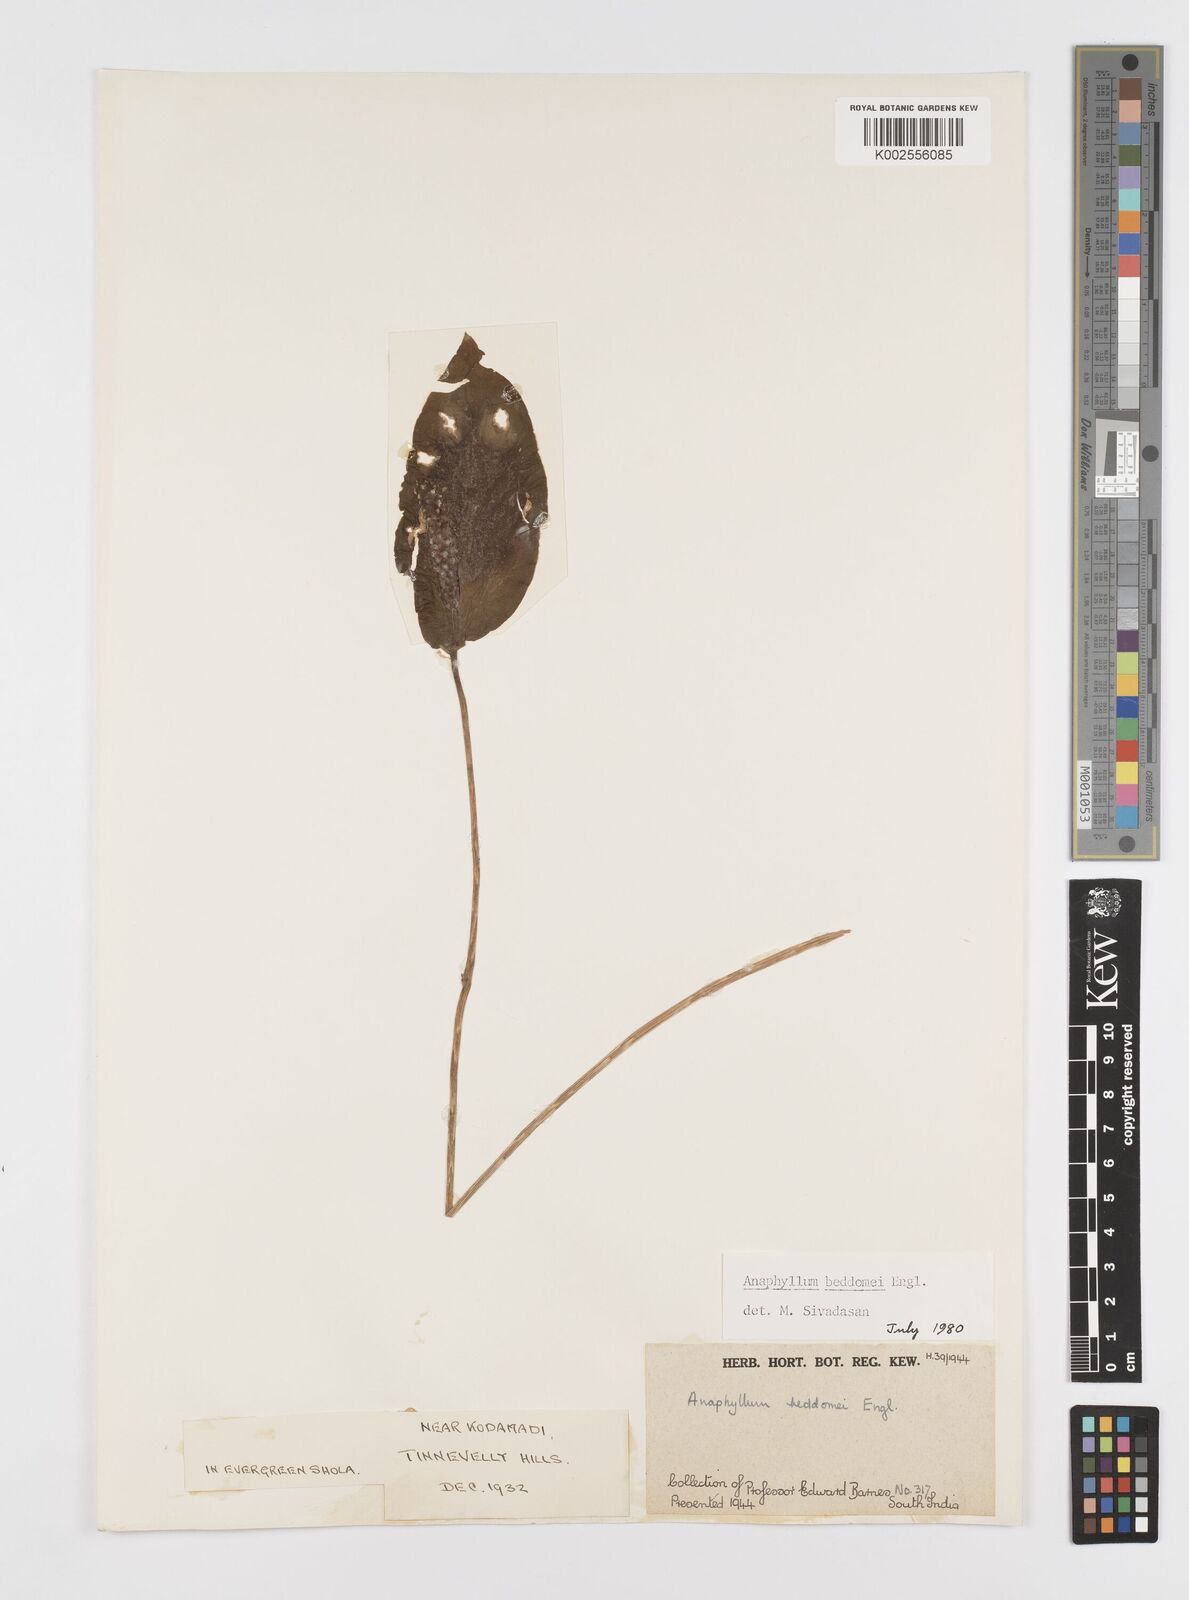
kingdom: Plantae
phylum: Tracheophyta
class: Liliopsida
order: Alismatales
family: Araceae
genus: Anaphyllum
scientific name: Anaphyllum beddomei
